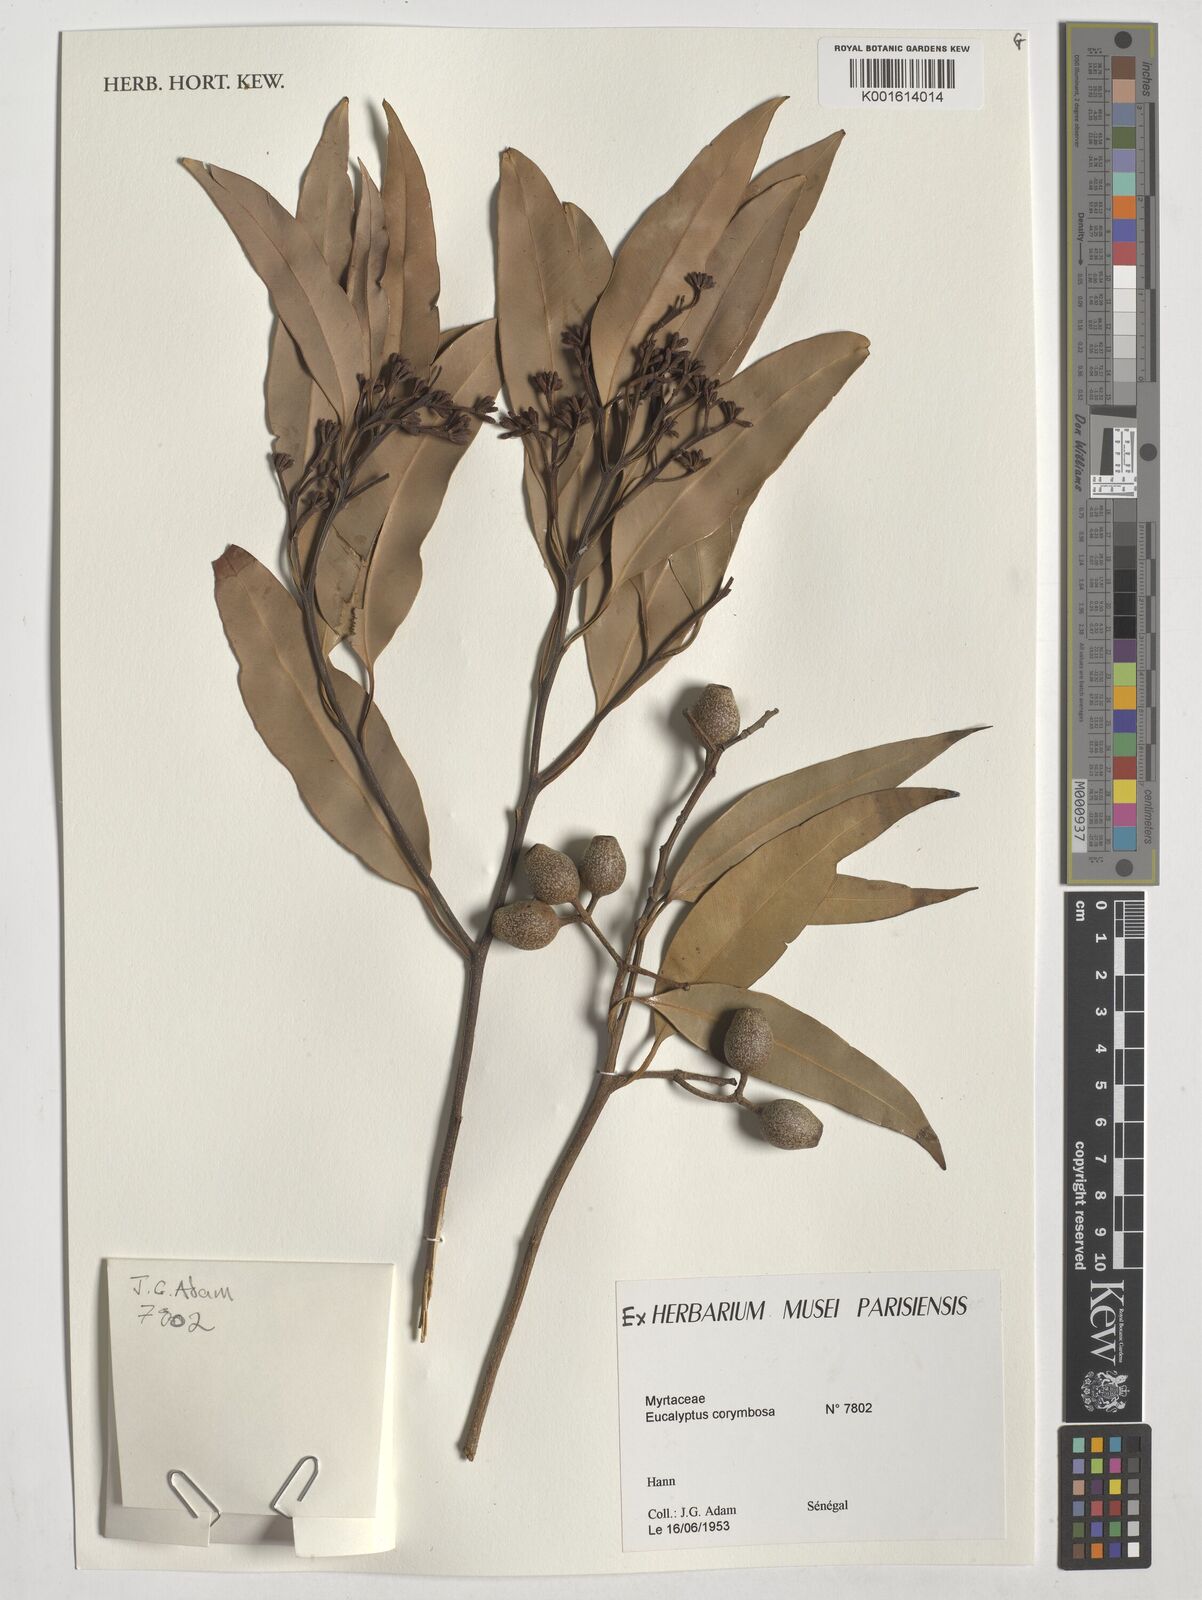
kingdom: Plantae
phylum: Tracheophyta
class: Magnoliopsida
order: Myrtales
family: Myrtaceae
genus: Corymbia
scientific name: Corymbia gummifera
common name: Red bloodwood
